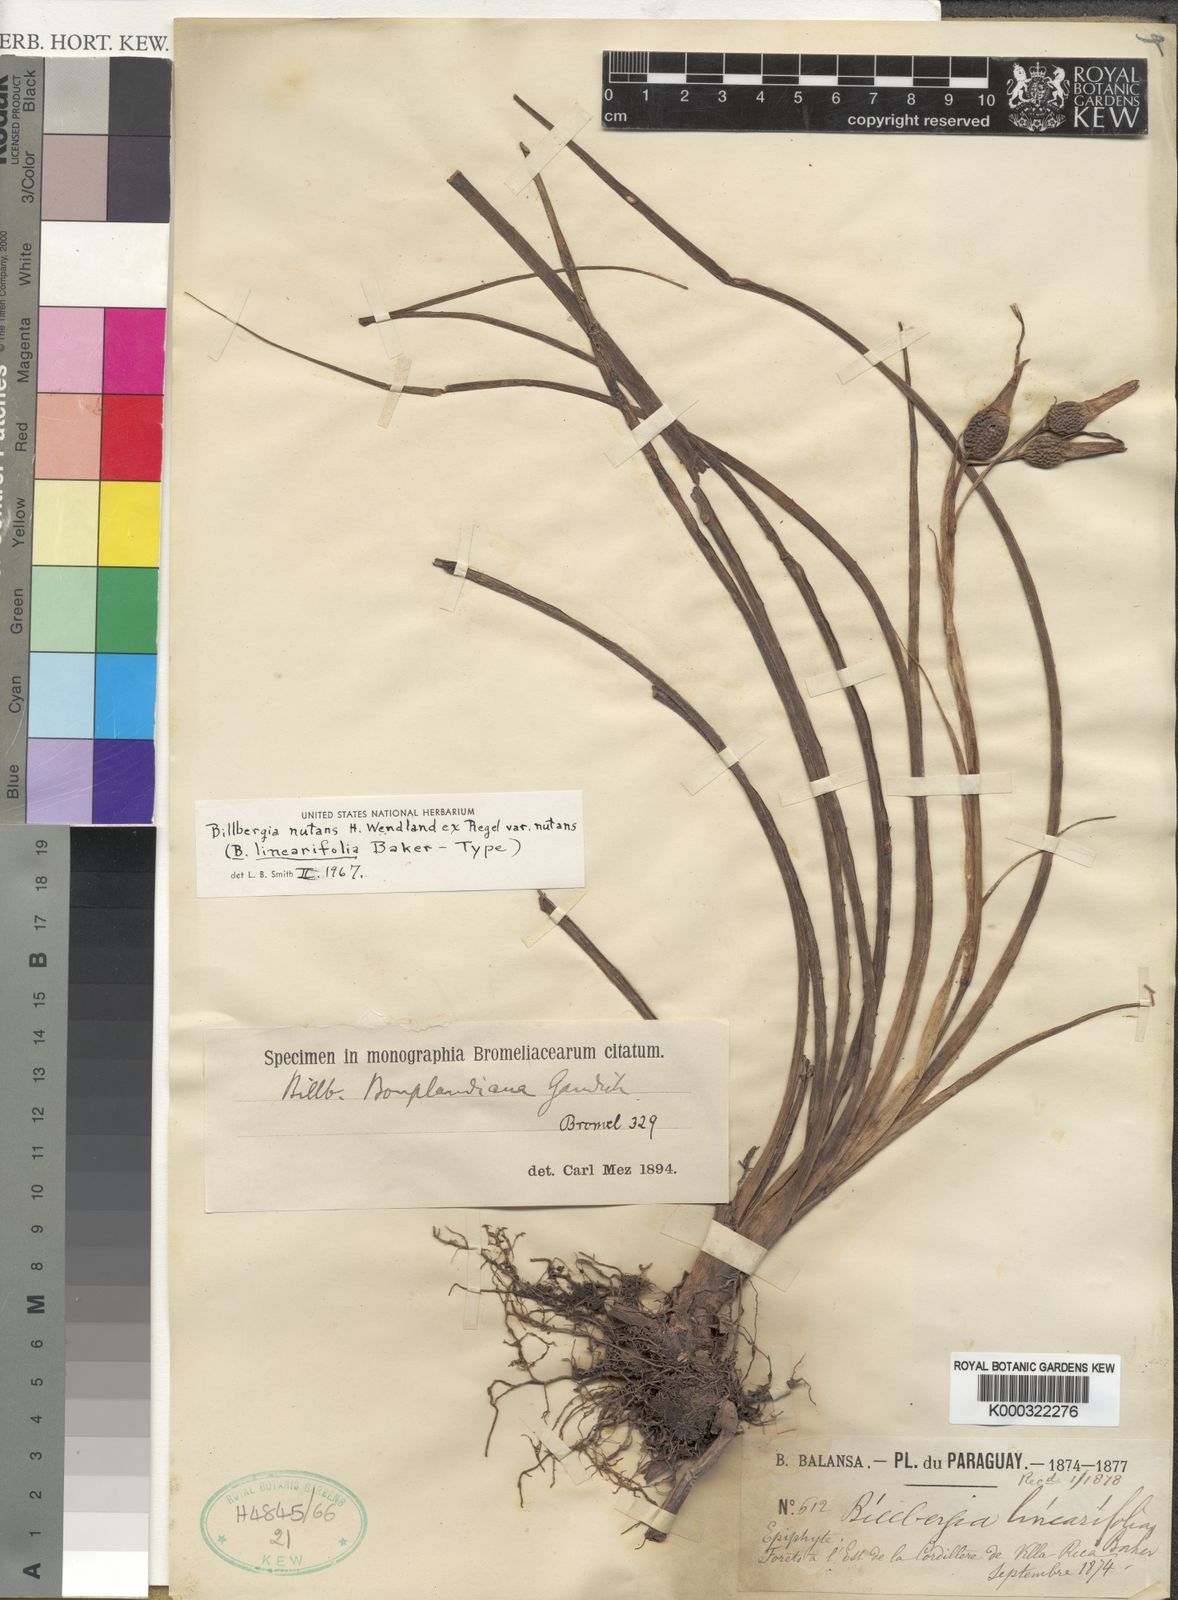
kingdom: Plantae
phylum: Tracheophyta
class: Liliopsida
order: Poales
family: Bromeliaceae
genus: Billbergia
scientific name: Billbergia
